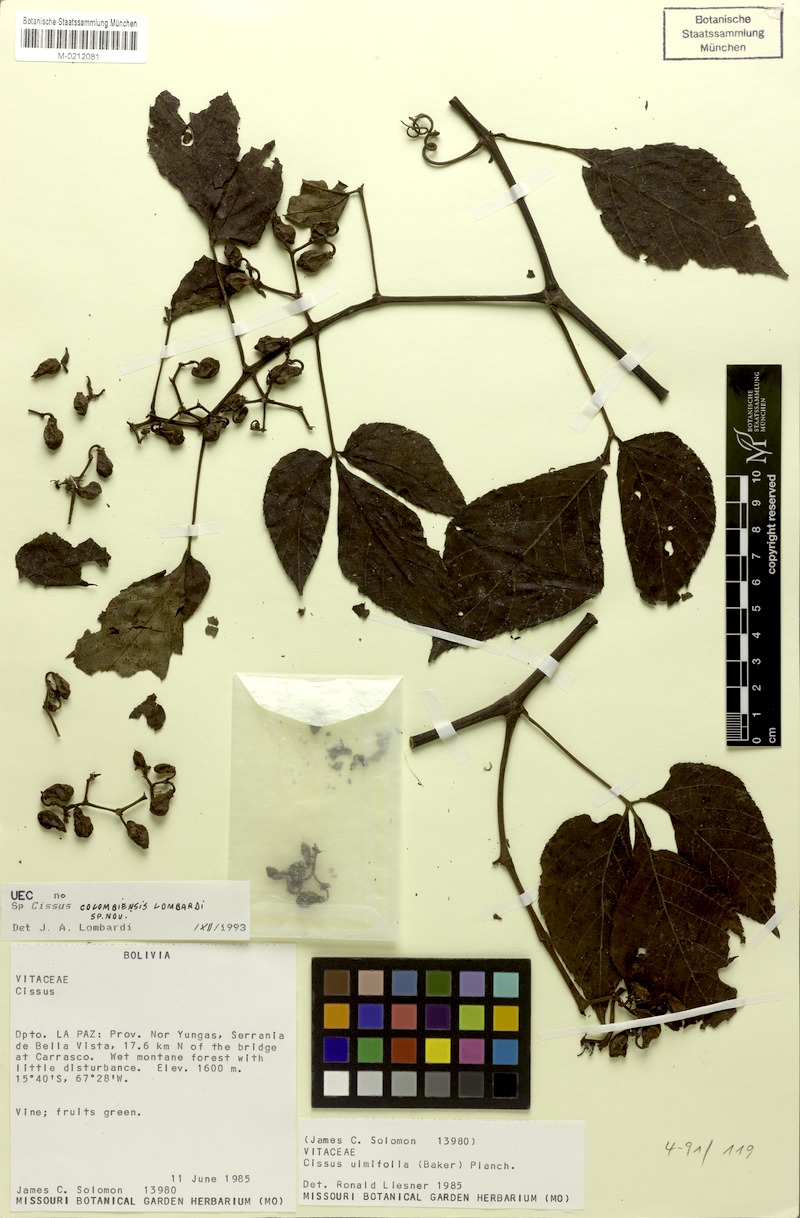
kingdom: Plantae
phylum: Tracheophyta
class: Magnoliopsida
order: Vitales
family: Vitaceae
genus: Cissus
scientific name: Cissus colombiensis
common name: Pudding withe
